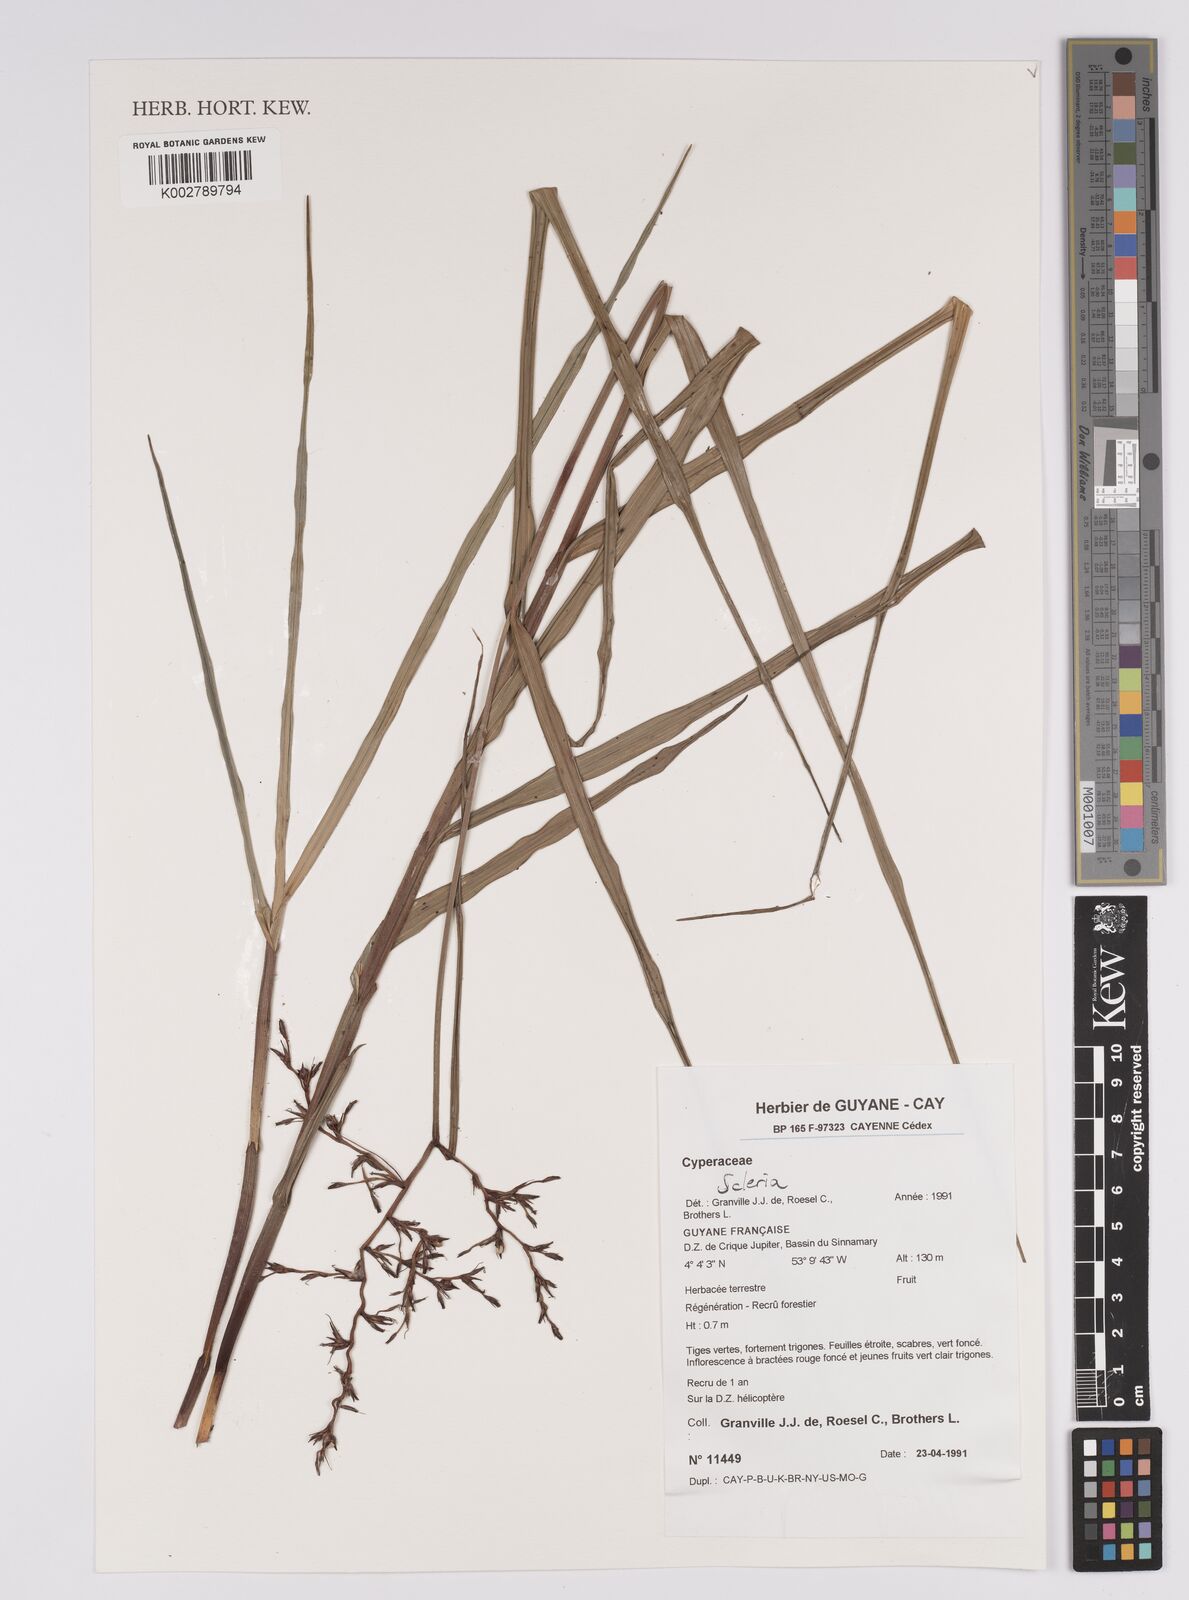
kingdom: Plantae
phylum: Tracheophyta
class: Liliopsida
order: Poales
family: Cyperaceae
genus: Scleria
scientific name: Scleria
